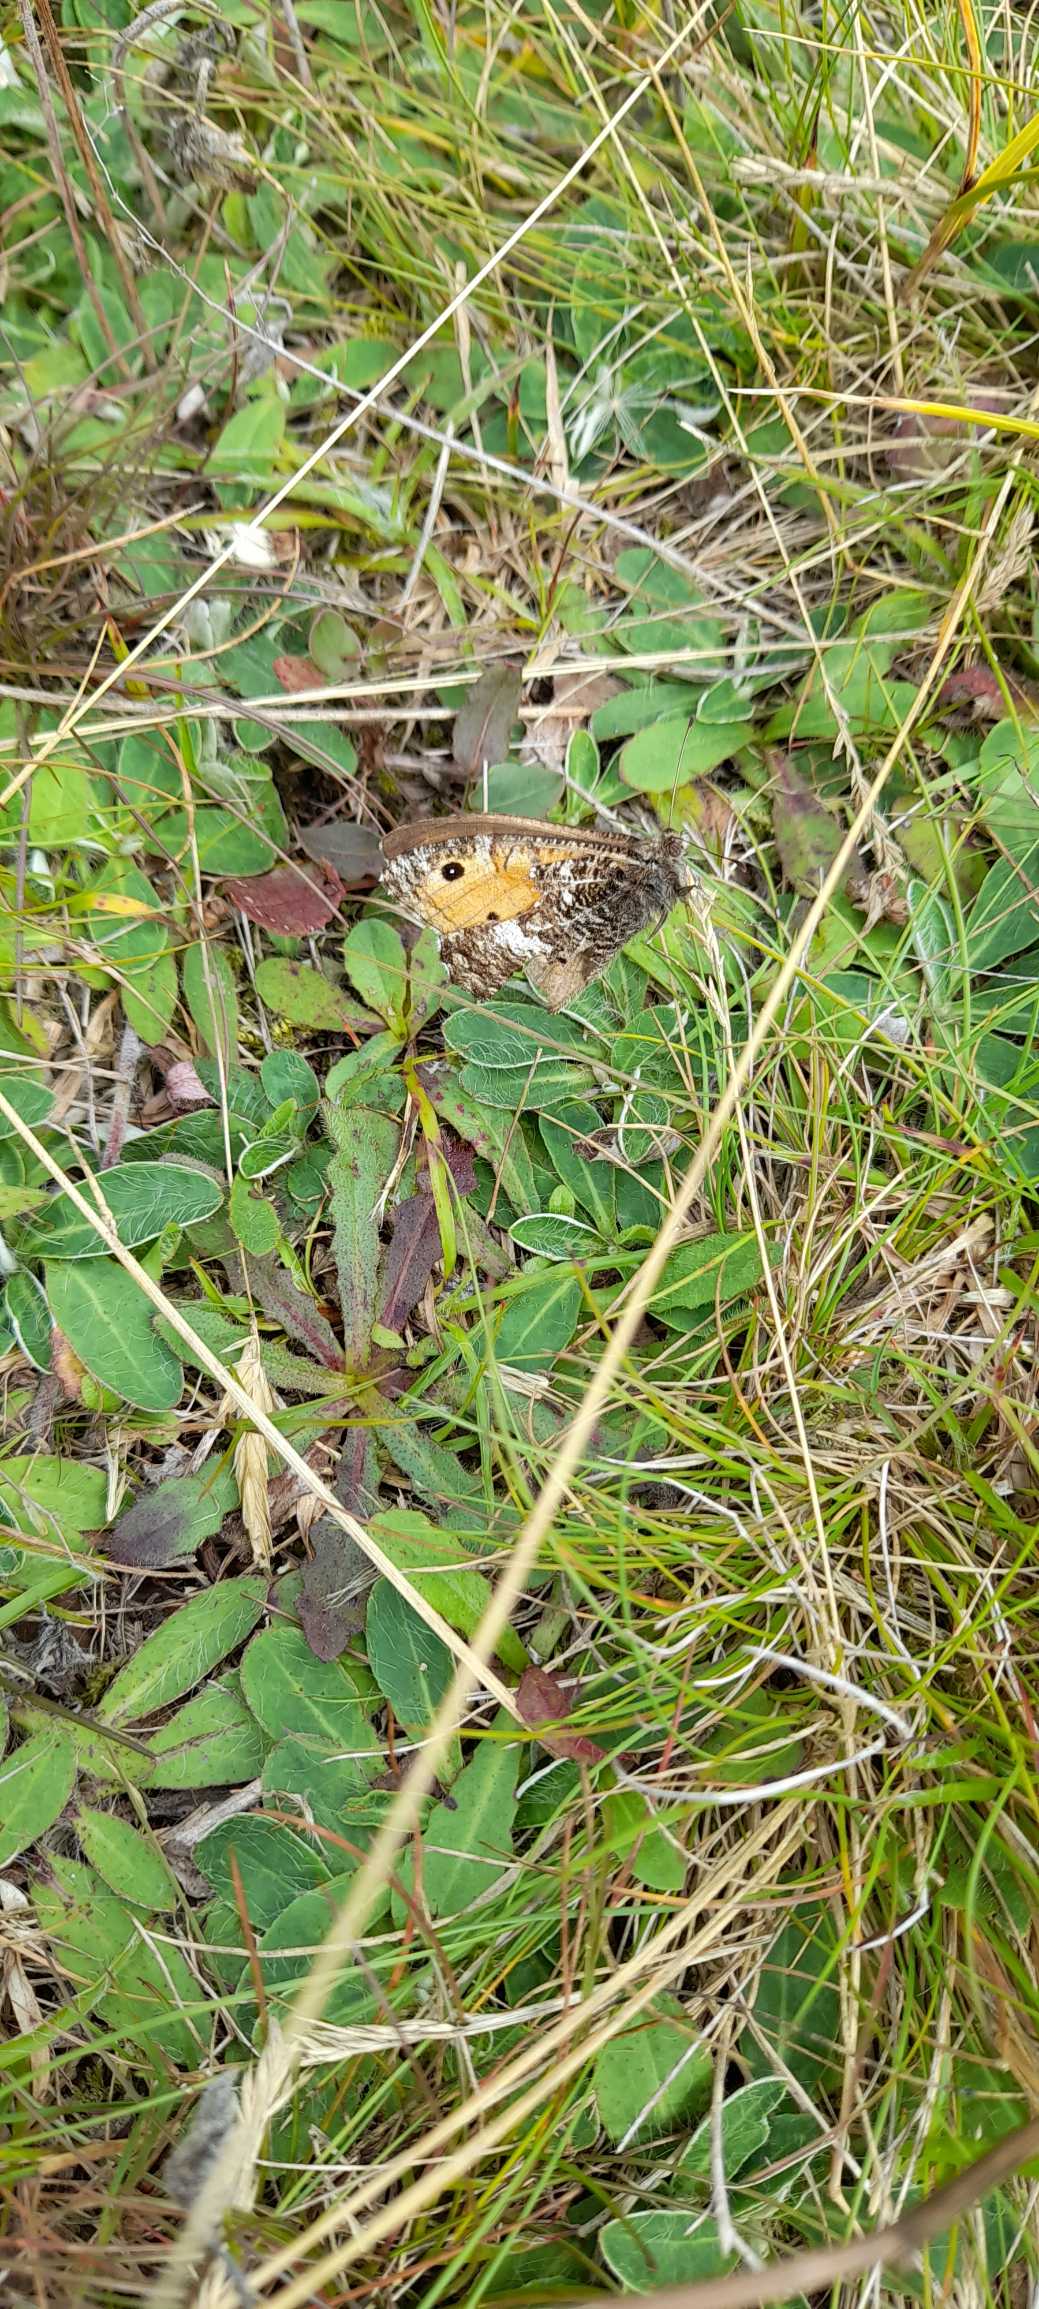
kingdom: Animalia
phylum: Arthropoda
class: Insecta
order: Lepidoptera
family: Nymphalidae
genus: Hipparchia
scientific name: Hipparchia semele
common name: Sandrandøje
